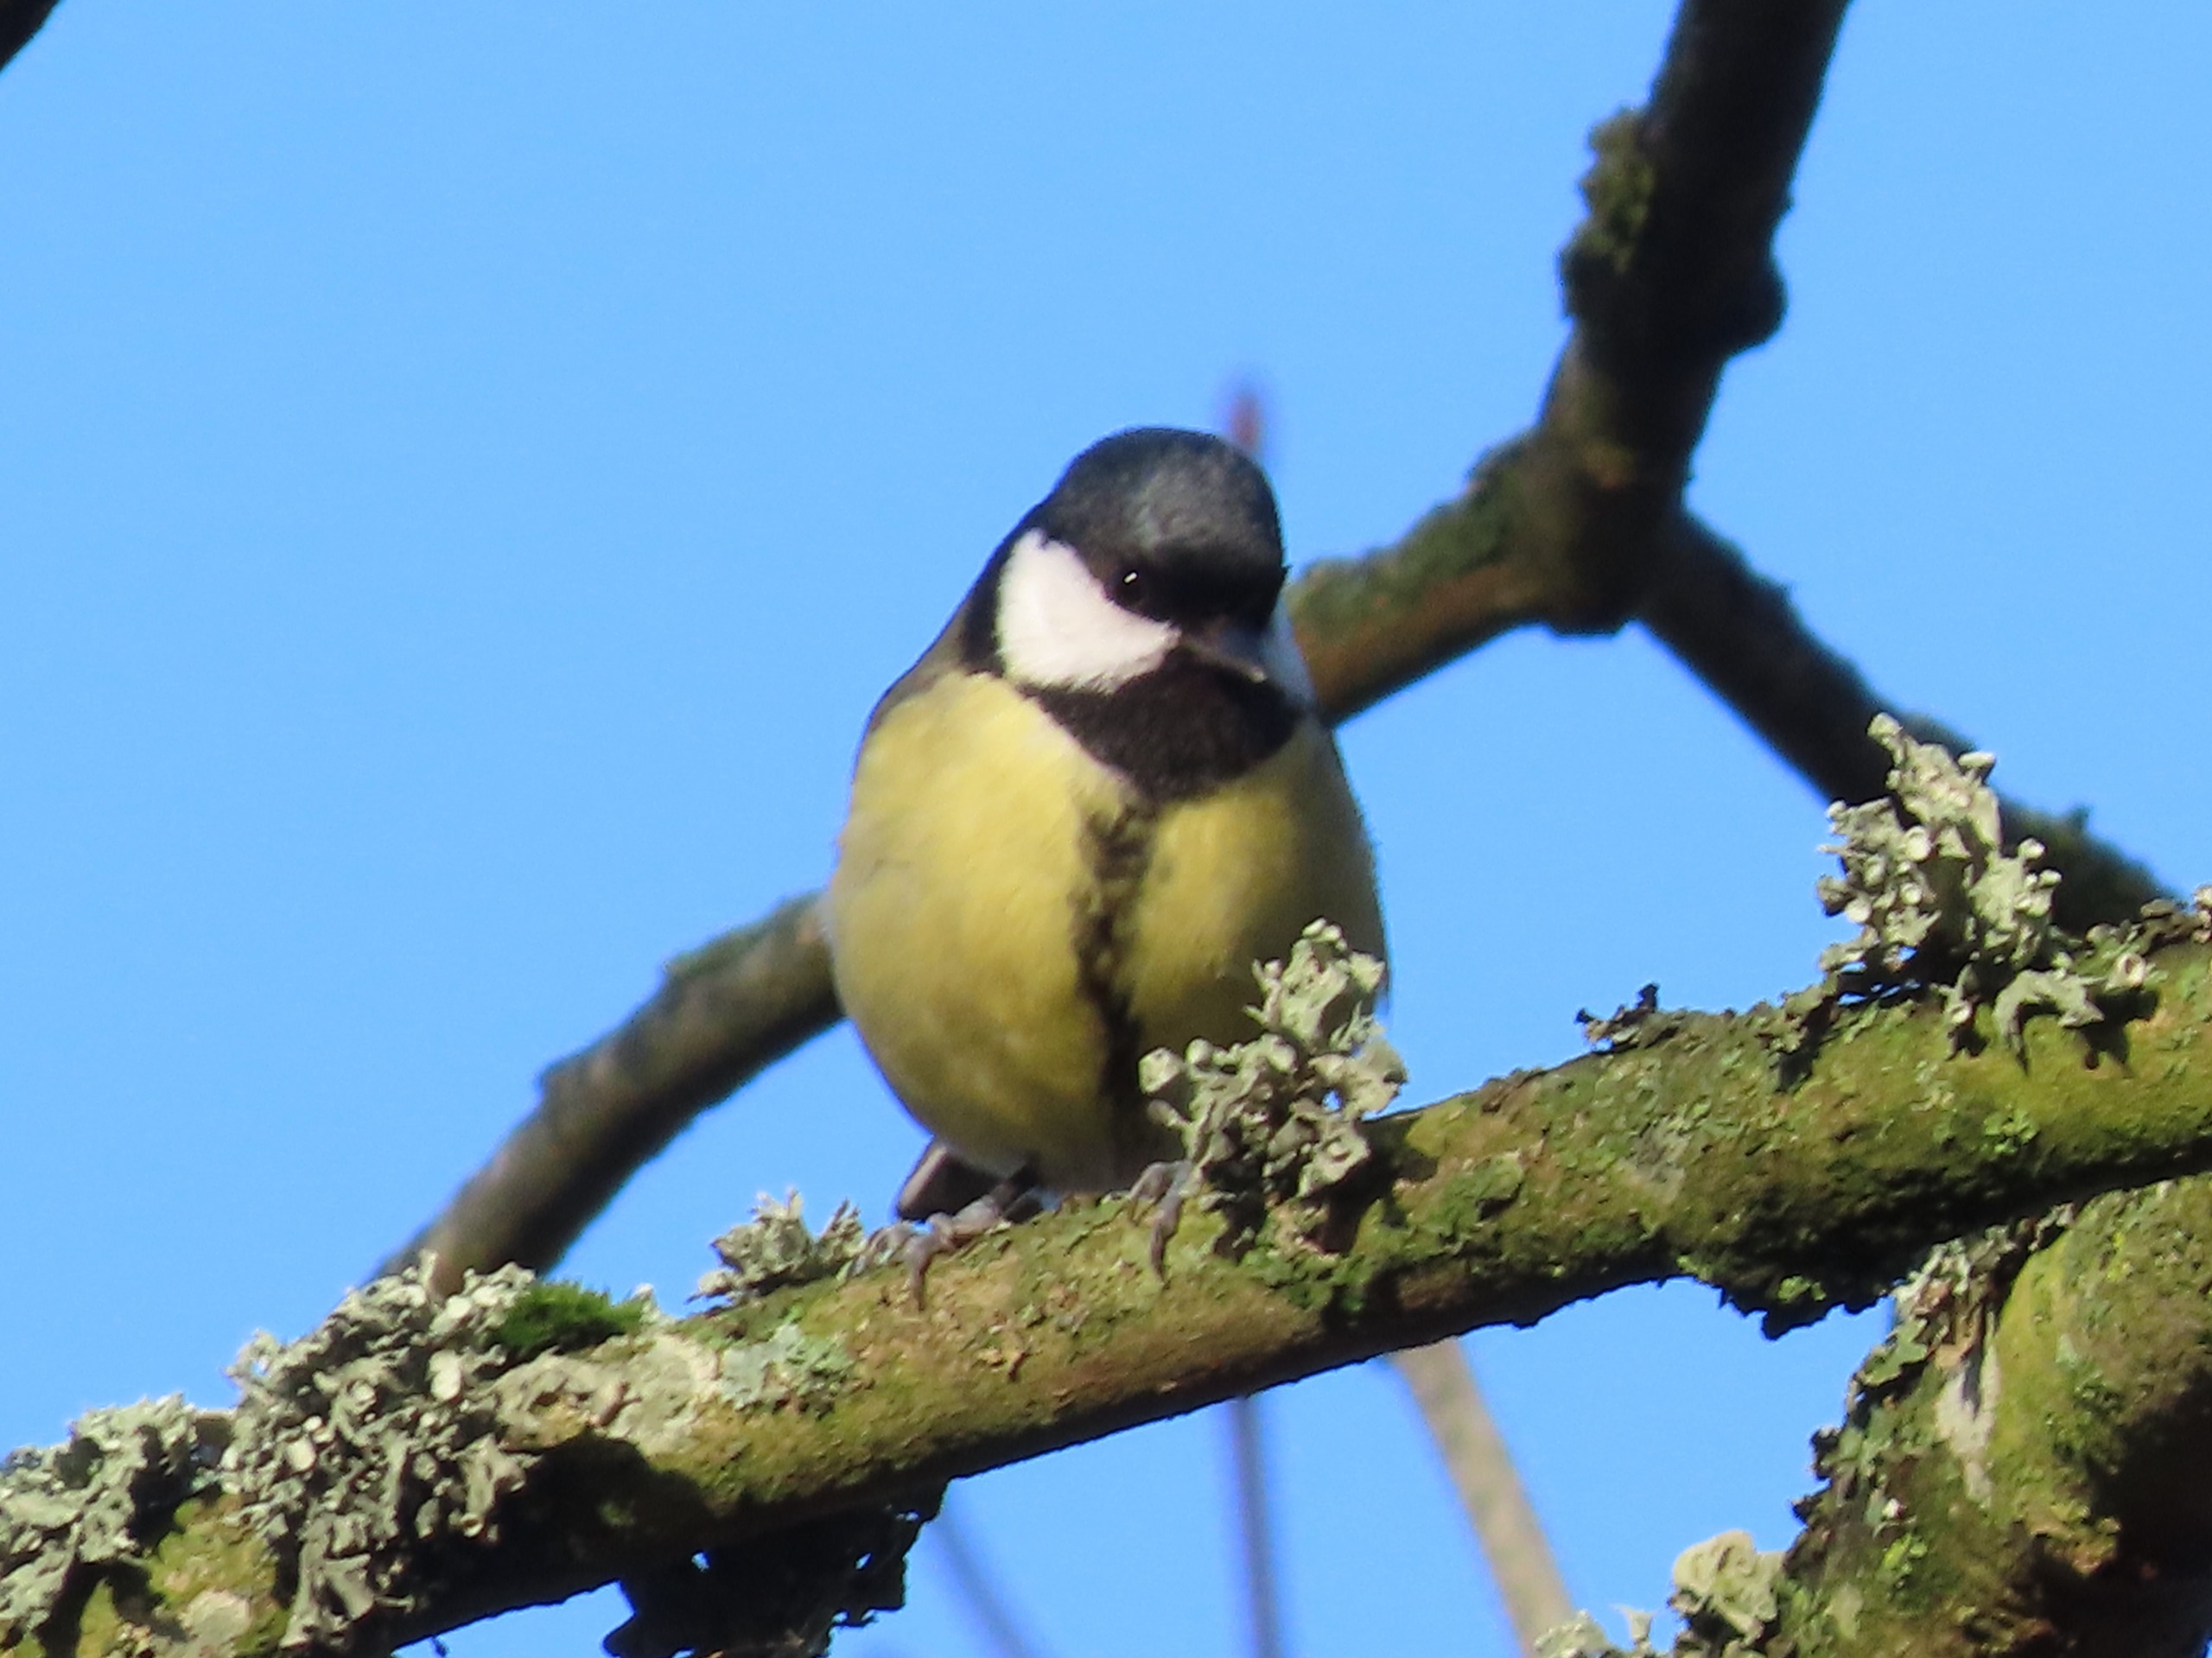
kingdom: Animalia
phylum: Chordata
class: Aves
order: Passeriformes
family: Paridae
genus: Parus
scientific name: Parus major
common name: Musvit
